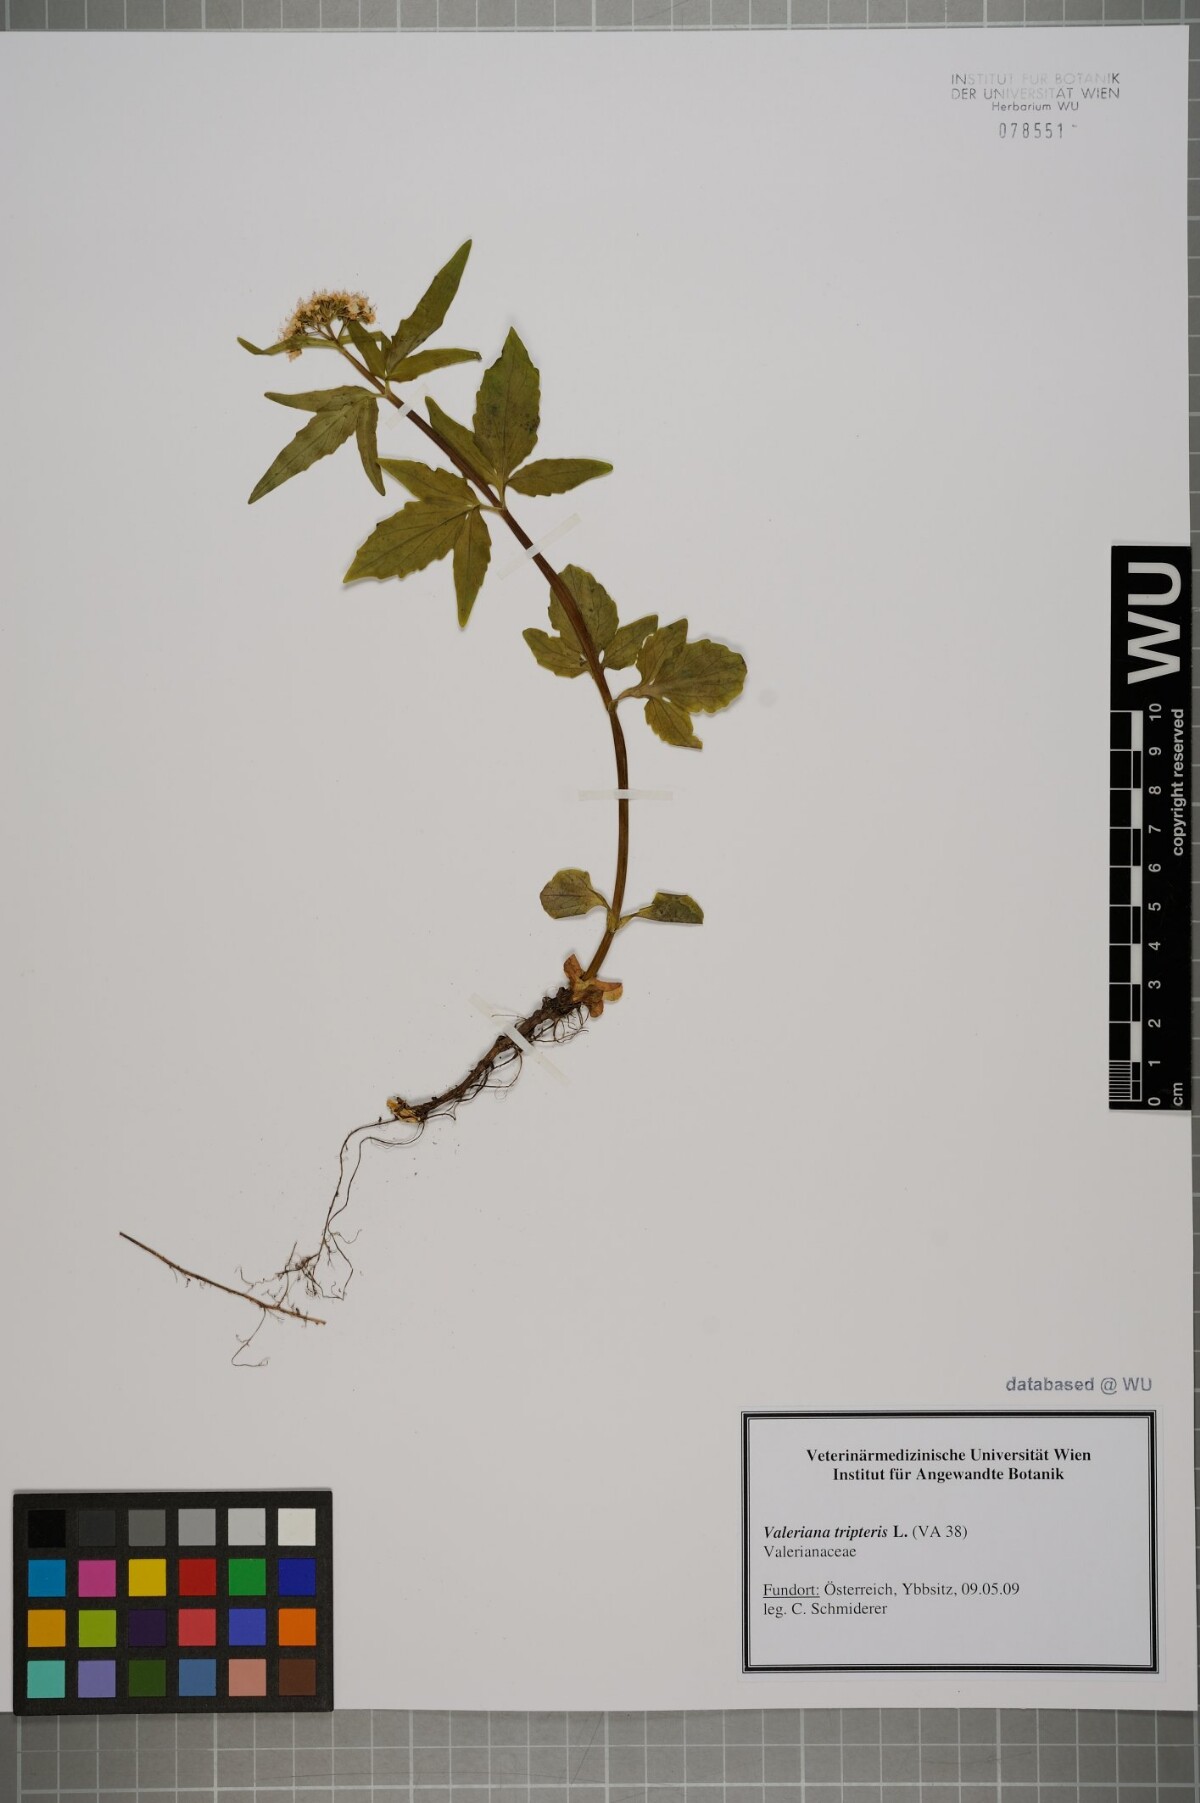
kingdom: Plantae
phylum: Tracheophyta
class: Magnoliopsida
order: Dipsacales
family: Caprifoliaceae
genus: Valeriana
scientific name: Valeriana tripteris
